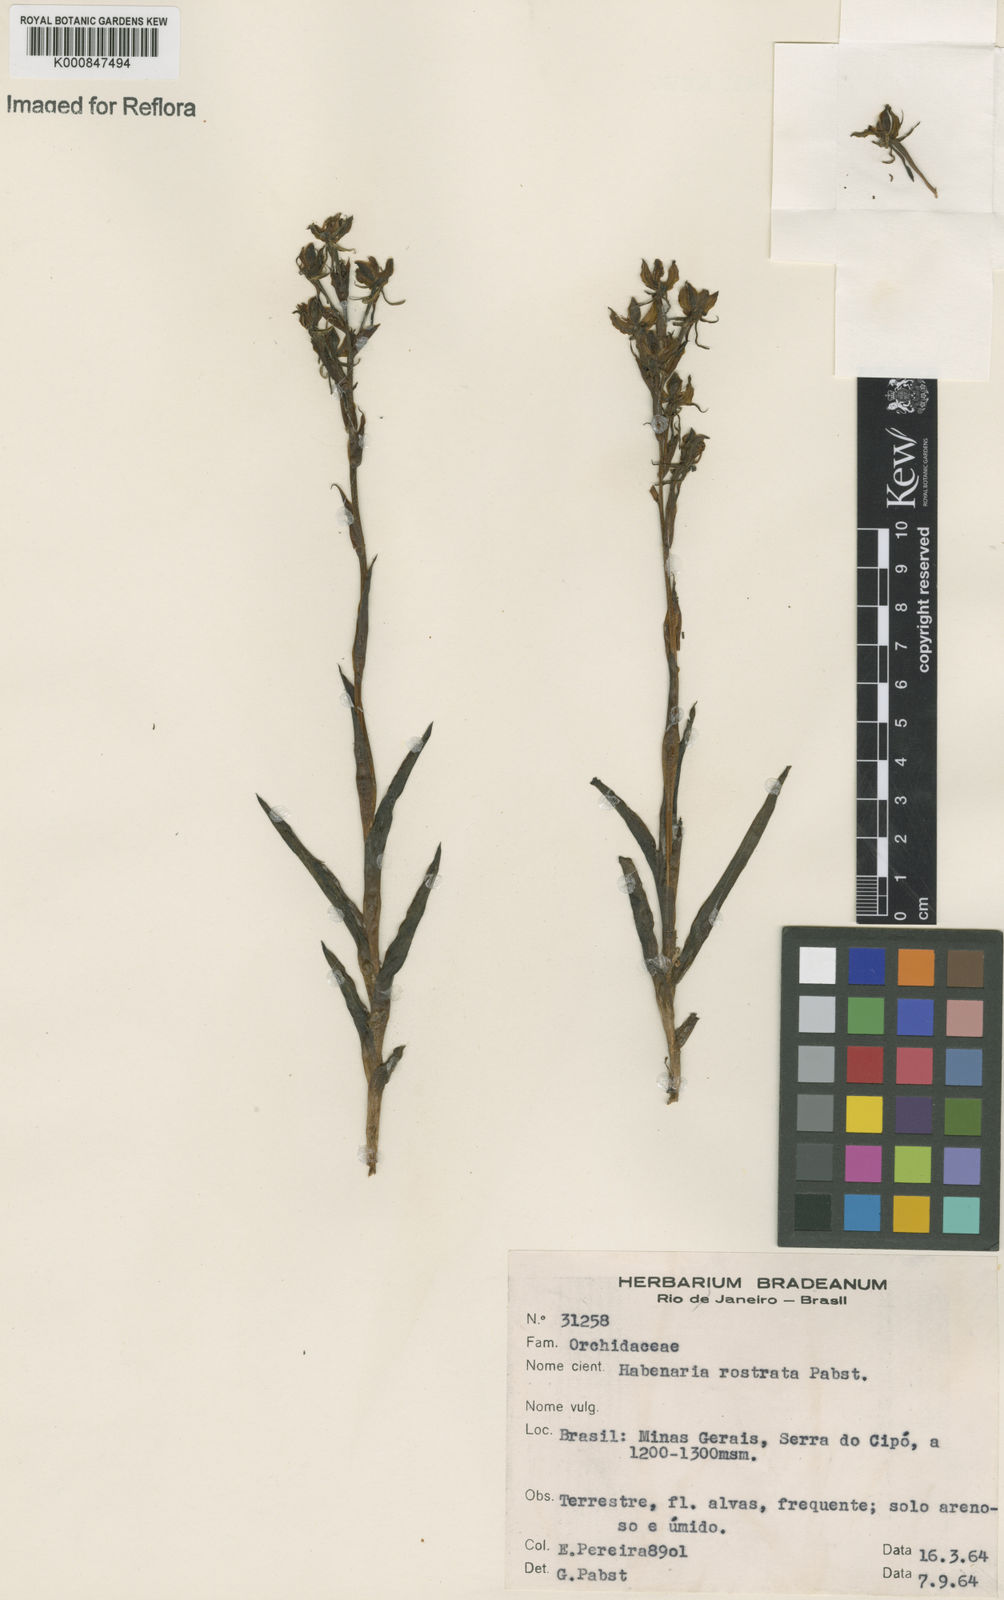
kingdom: Plantae
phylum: Tracheophyta
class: Liliopsida
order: Asparagales
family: Orchidaceae
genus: Habenaria
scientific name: Habenaria magniscutata
